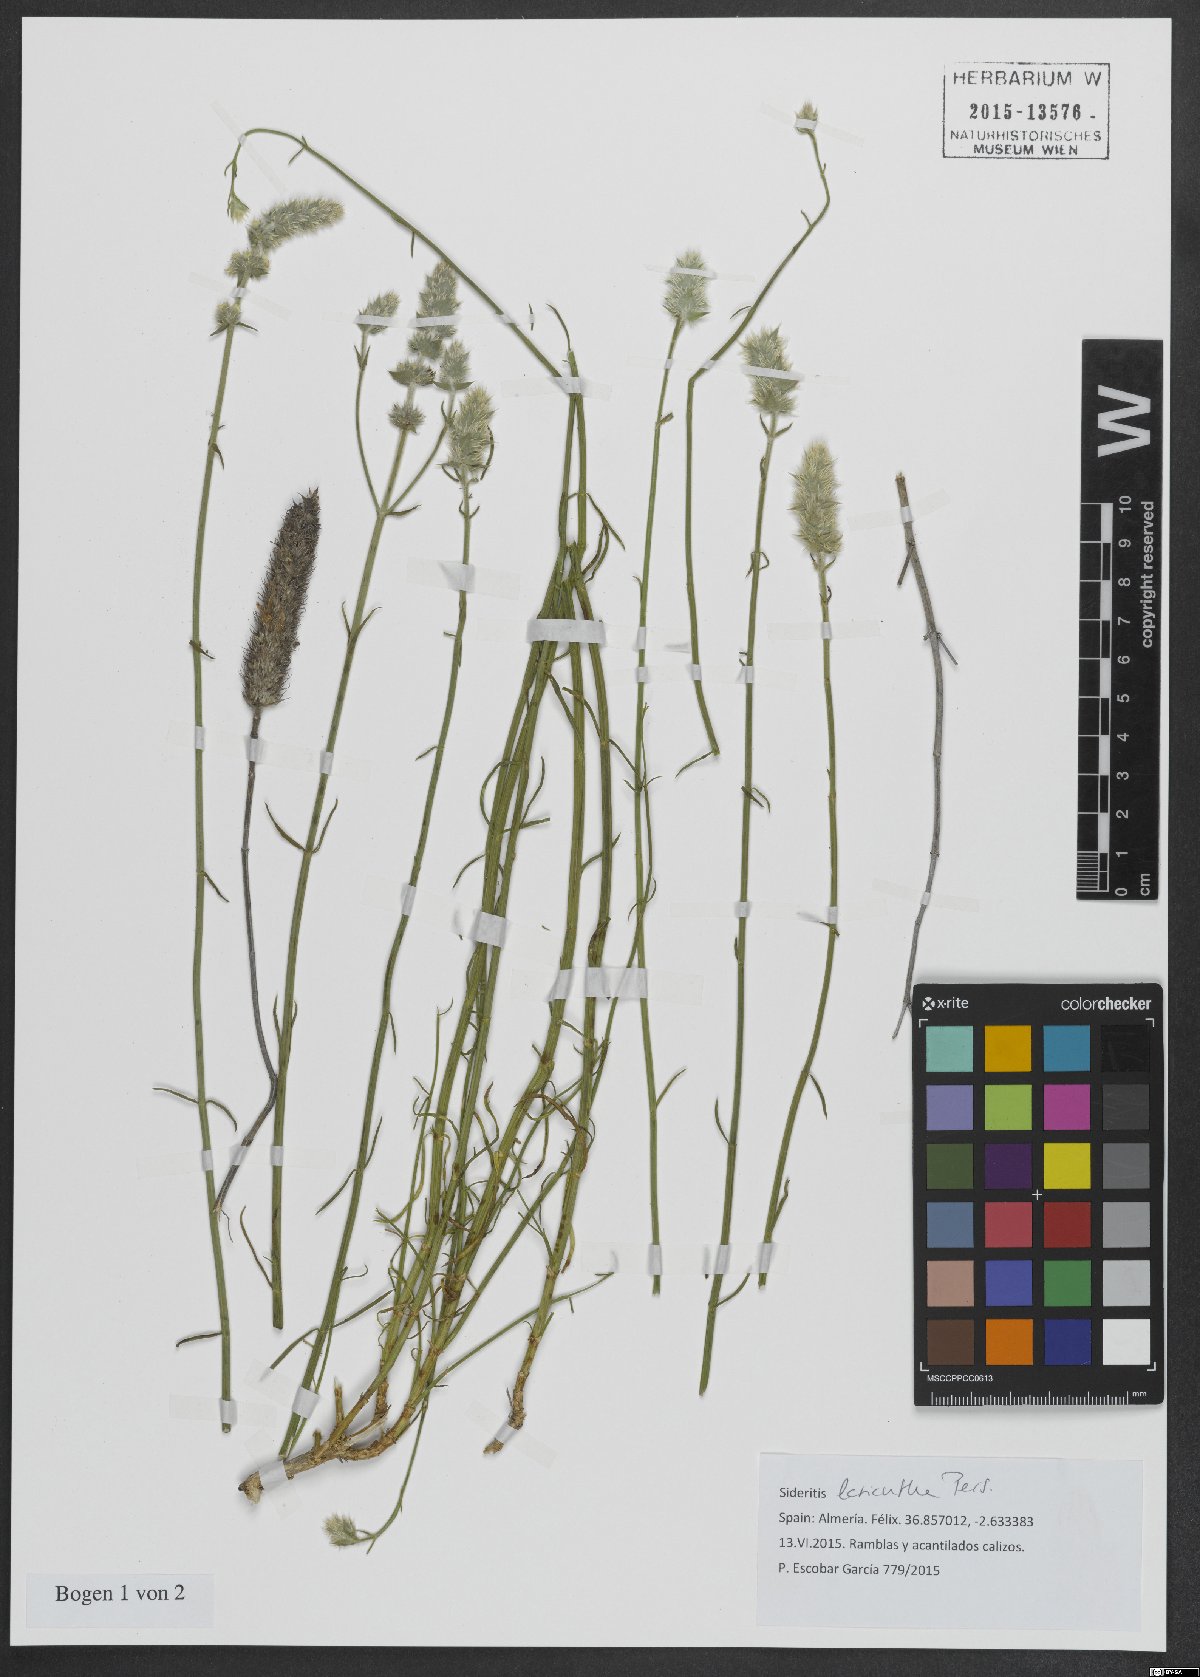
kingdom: Plantae
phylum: Tracheophyta
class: Magnoliopsida
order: Lamiales
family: Lamiaceae
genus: Sideritis
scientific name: Sideritis lasiantha
